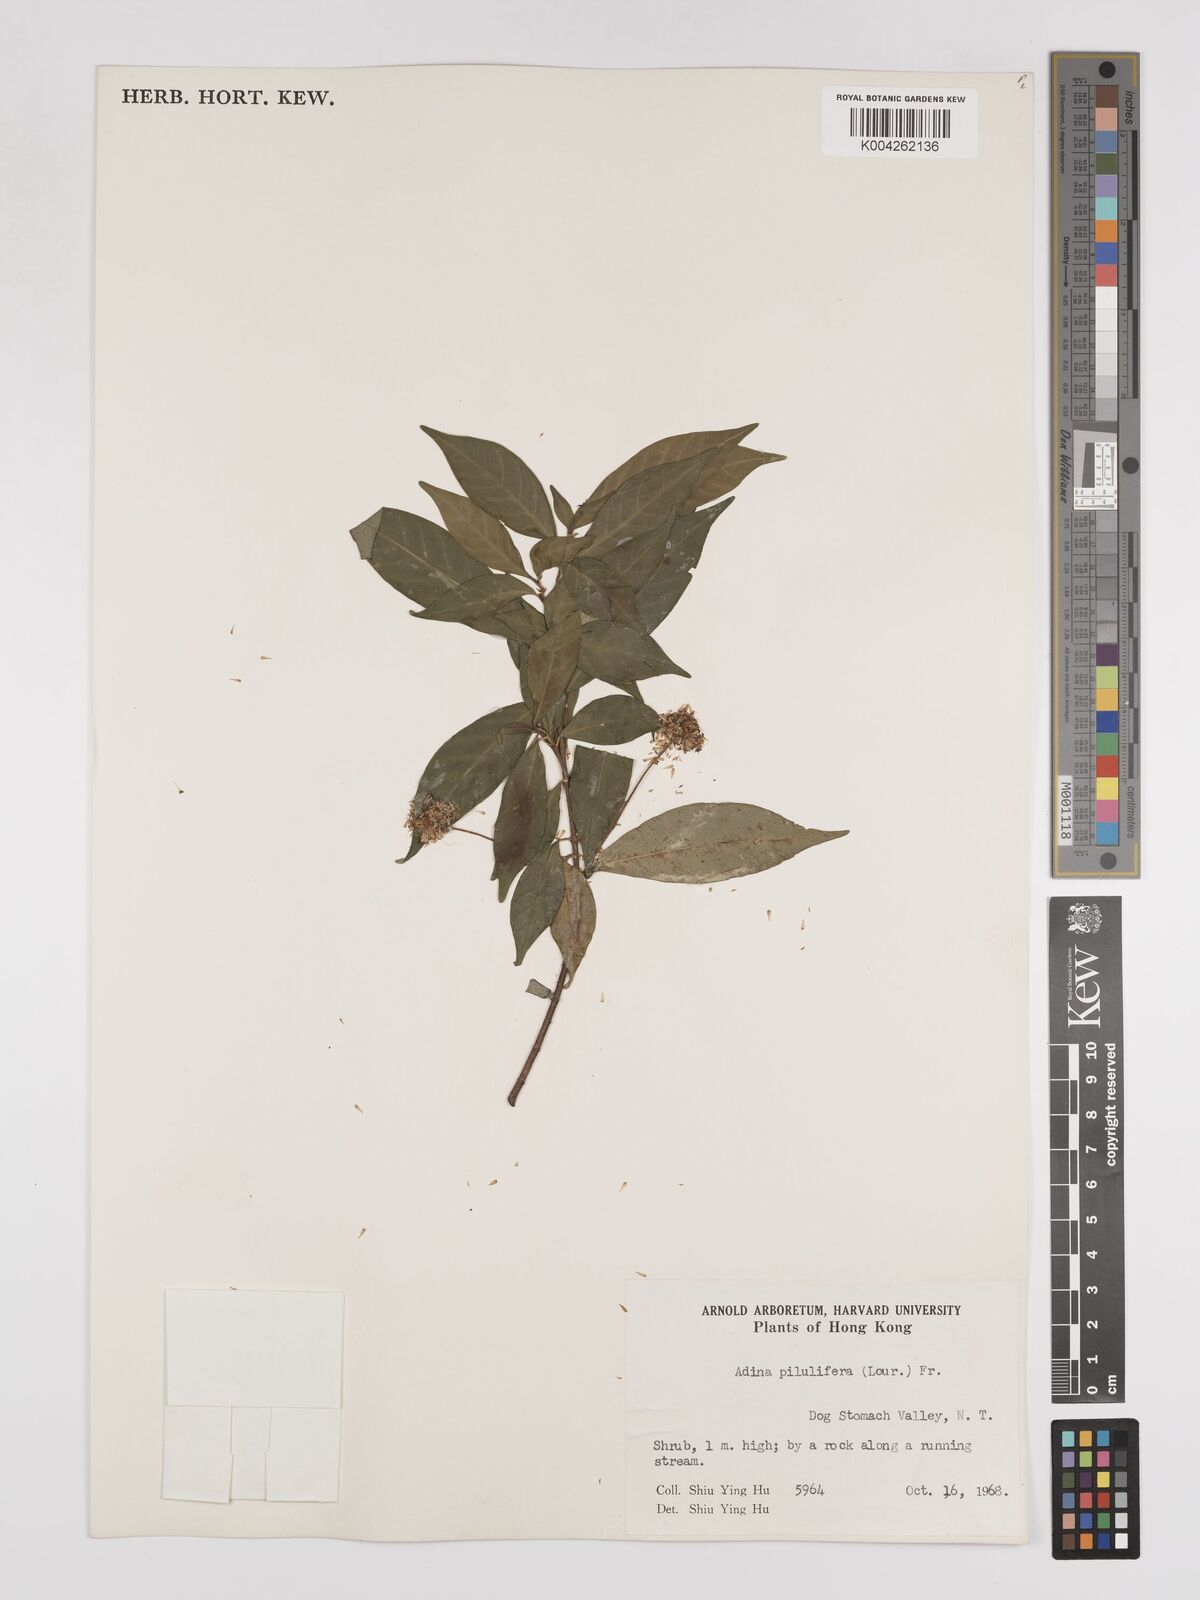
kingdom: Plantae
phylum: Tracheophyta
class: Magnoliopsida
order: Gentianales
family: Rubiaceae
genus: Adina
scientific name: Adina pilulifera
